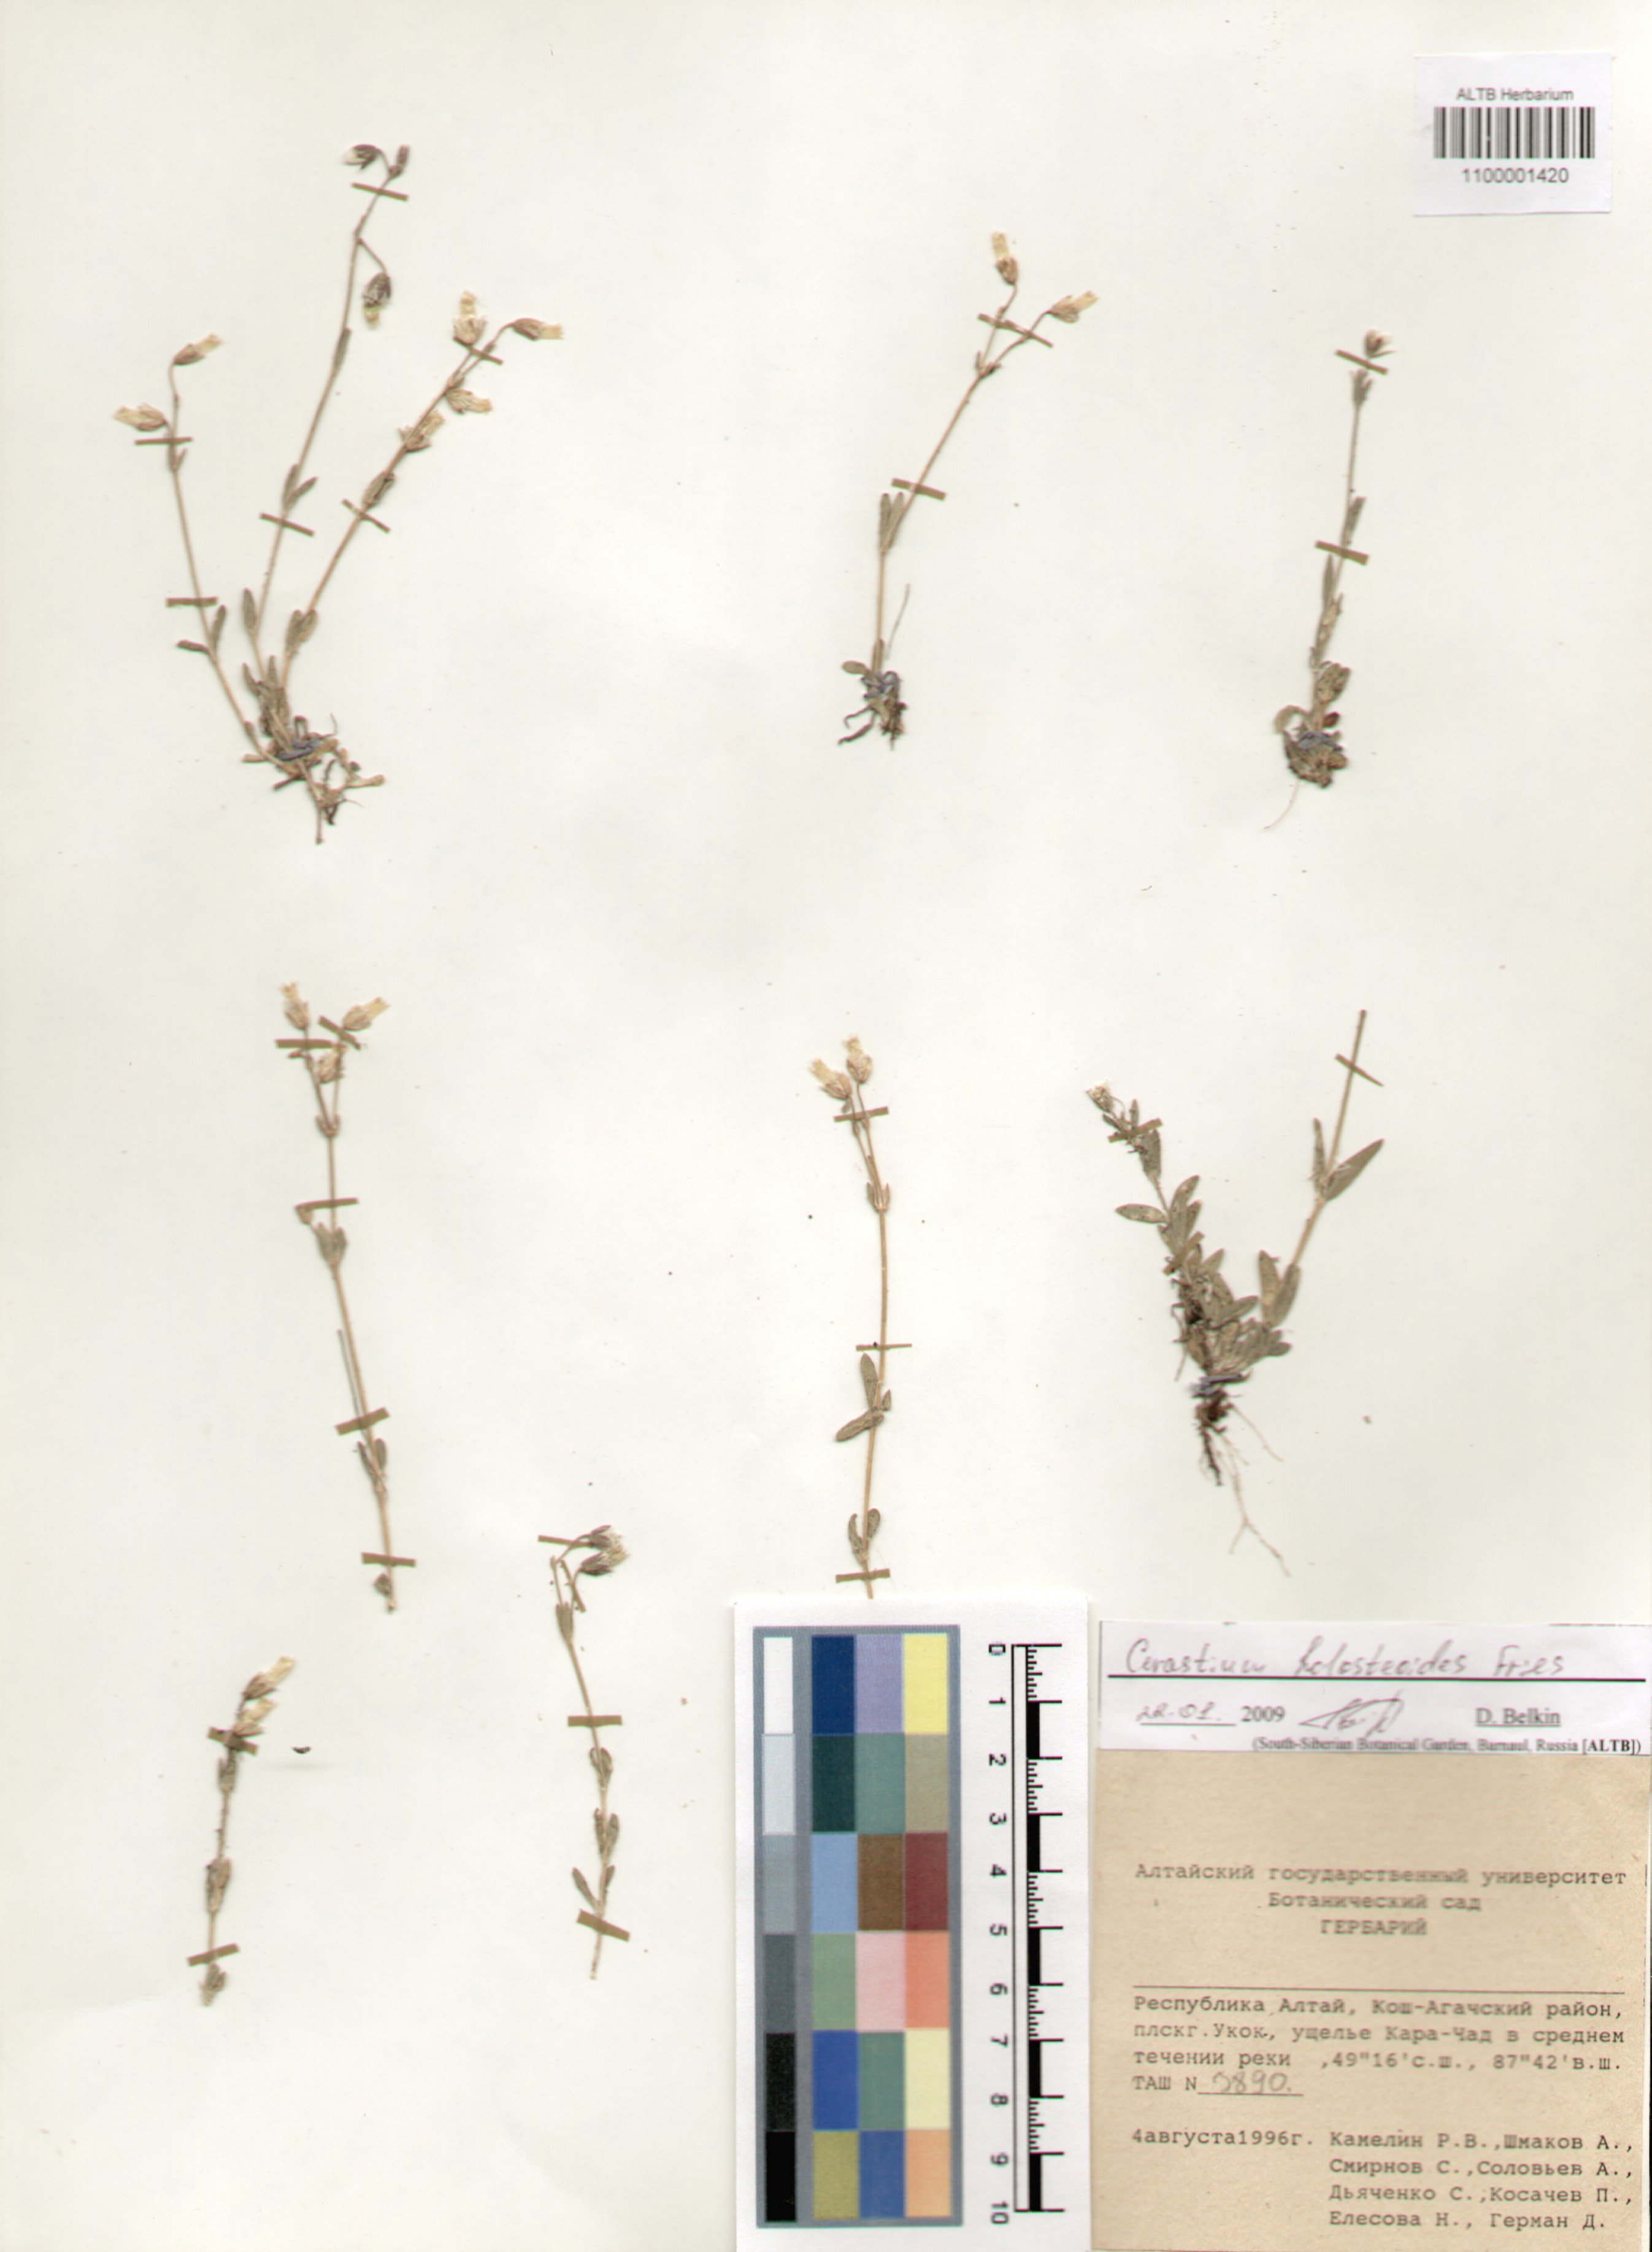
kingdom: Plantae
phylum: Tracheophyta
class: Magnoliopsida
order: Caryophyllales
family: Caryophyllaceae
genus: Cerastium
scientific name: Cerastium holosteoides
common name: Big chickweed
